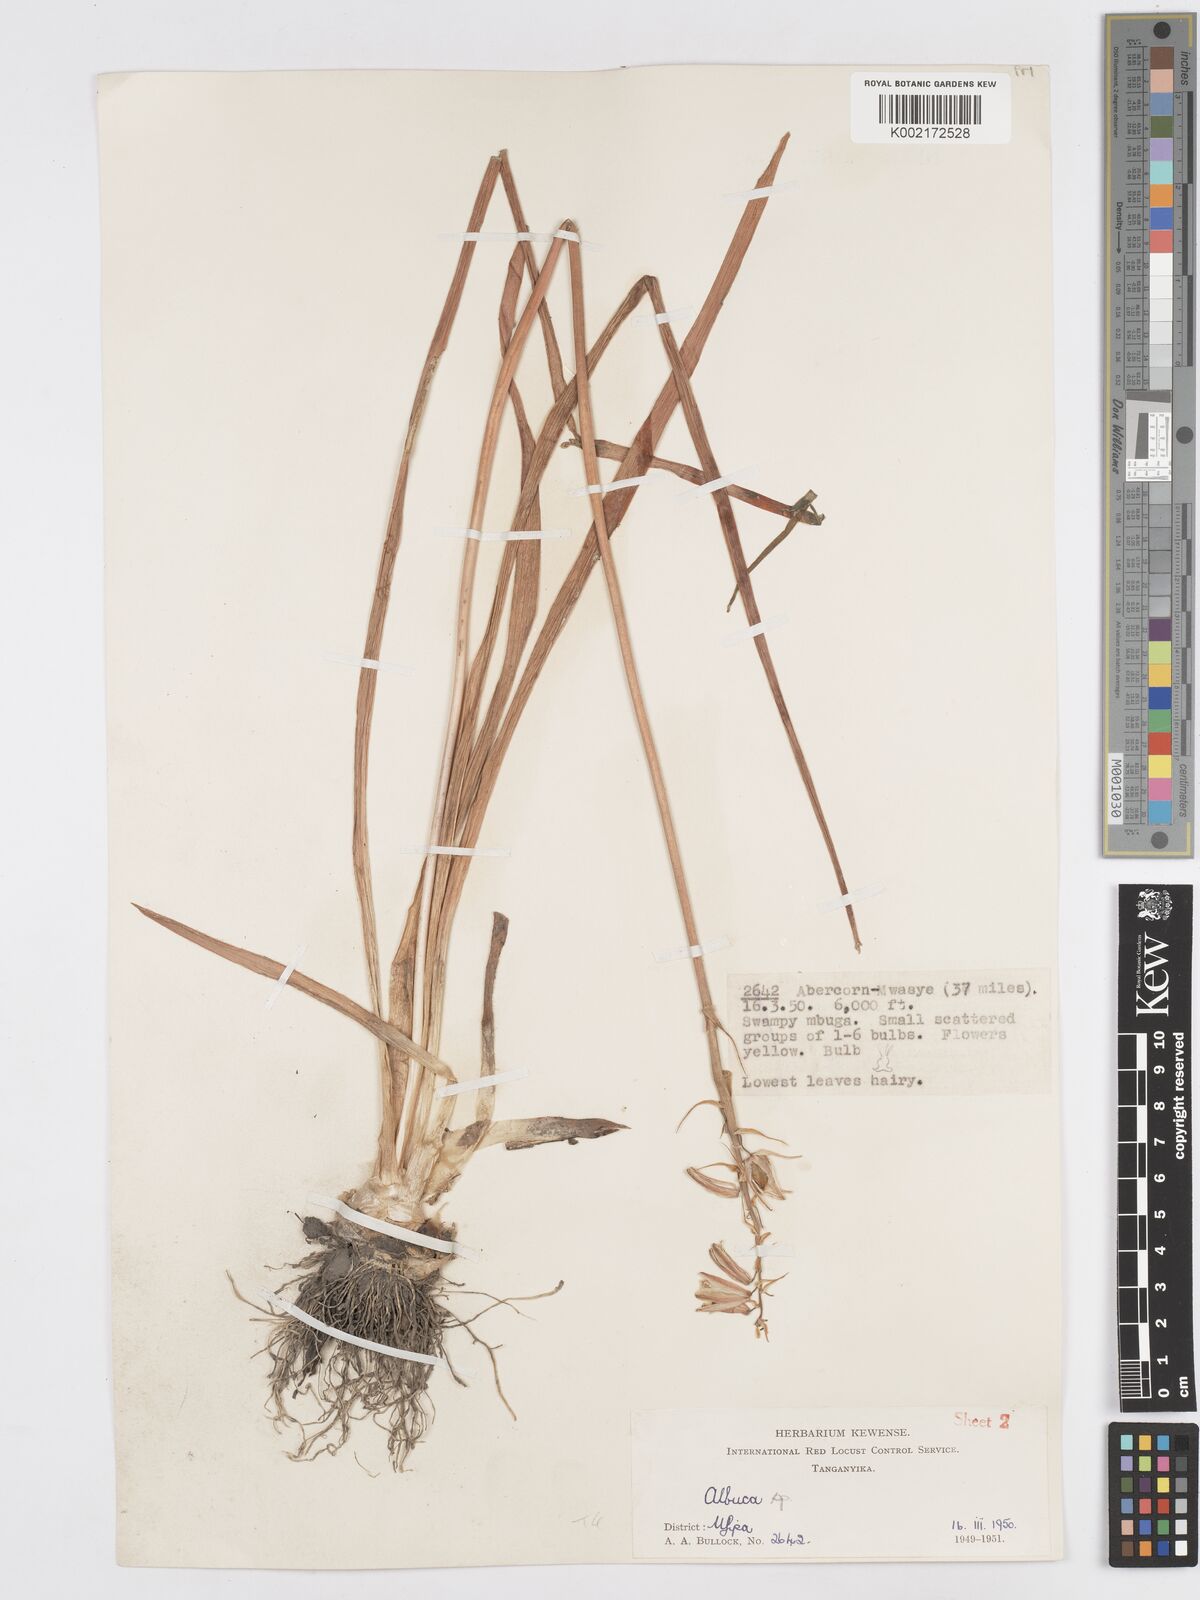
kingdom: Plantae
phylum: Tracheophyta
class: Liliopsida
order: Asparagales
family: Asparagaceae
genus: Albuca
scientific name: Albuca abyssinica
